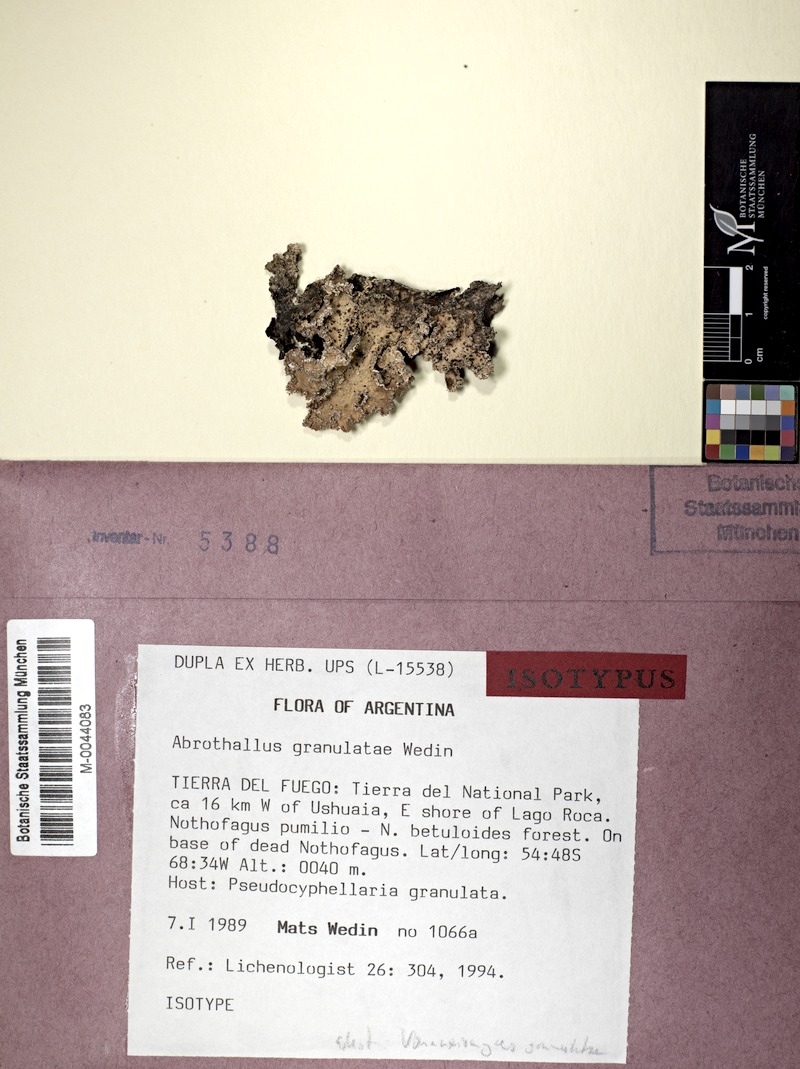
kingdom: Fungi
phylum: Ascomycota
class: Lecanoromycetes
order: Peltigerales
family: Lobariaceae
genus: Pseudocyphellaria
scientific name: Pseudocyphellaria granulata
